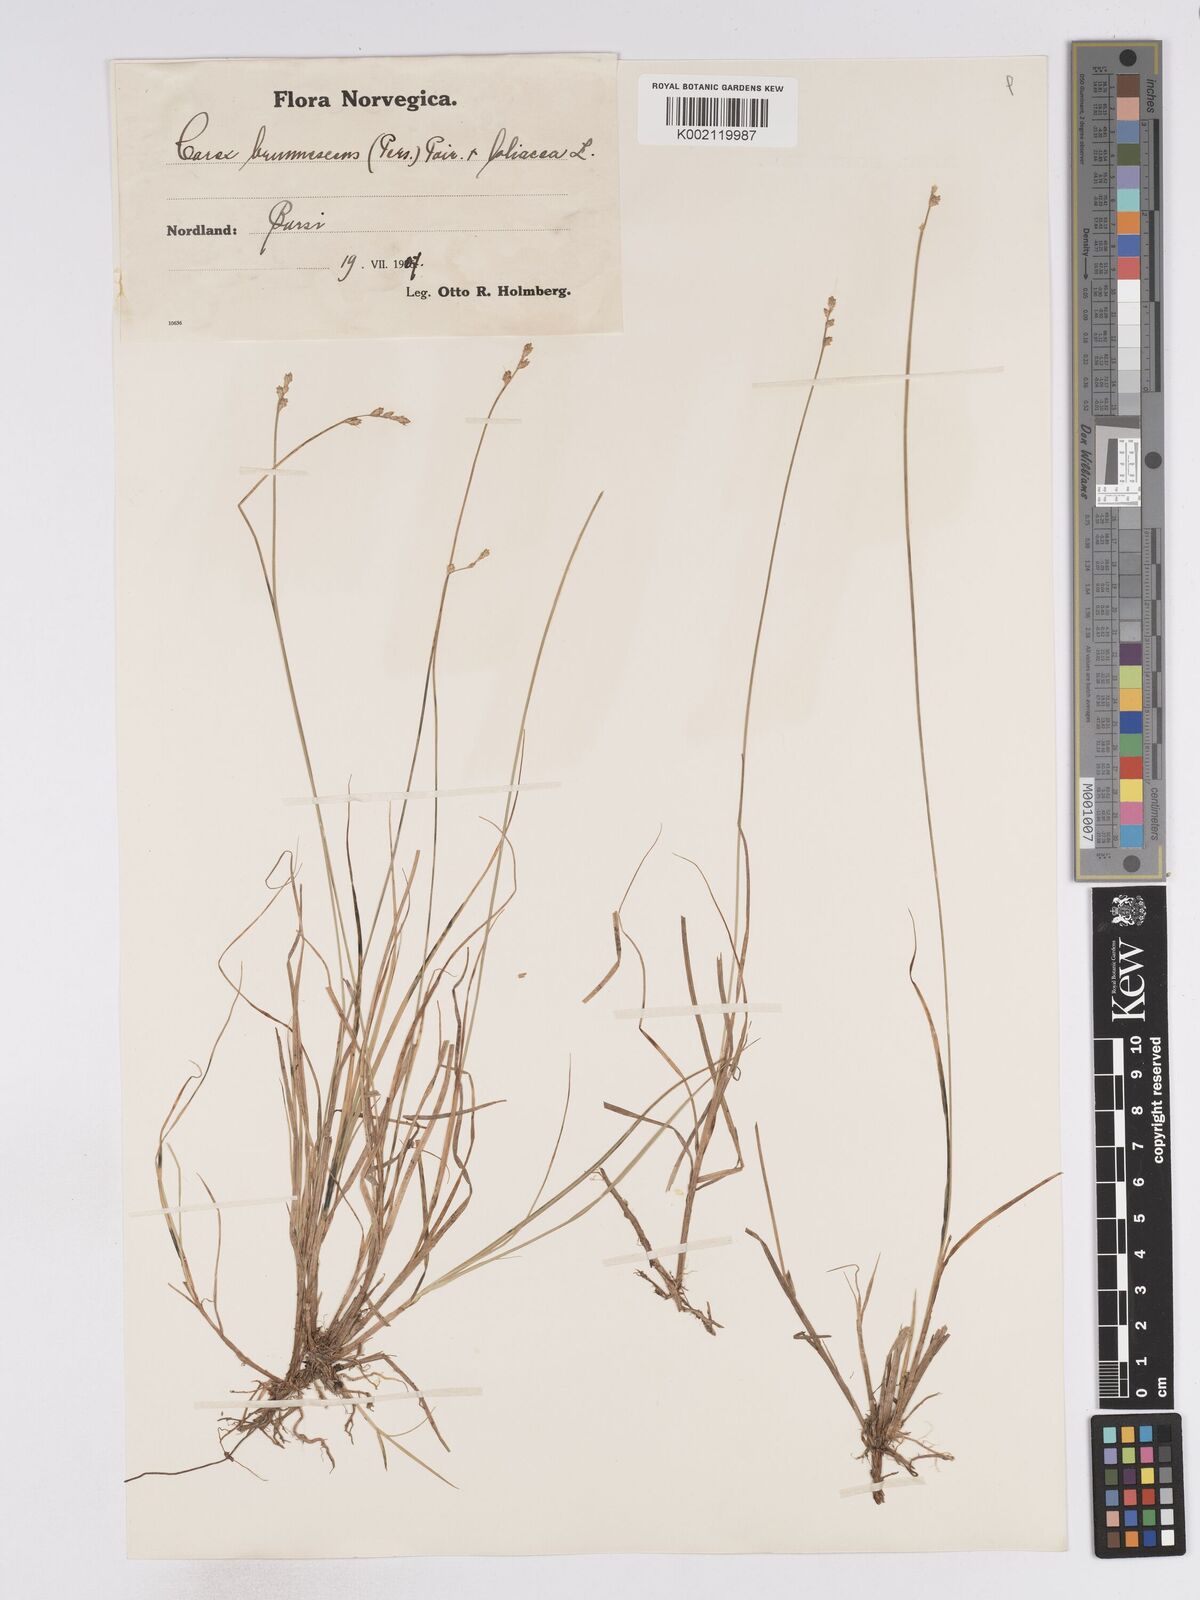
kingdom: Plantae
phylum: Tracheophyta
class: Liliopsida
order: Poales
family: Cyperaceae
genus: Carex
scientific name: Carex brunnescens
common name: Brown sedge
